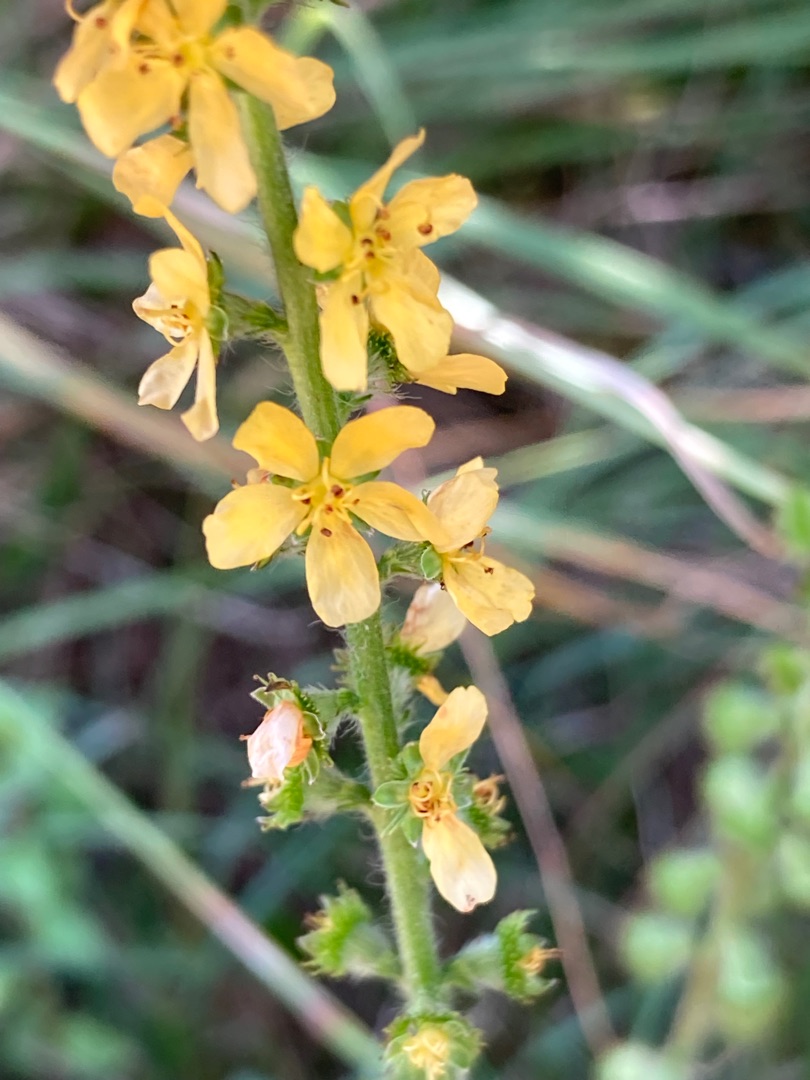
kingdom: Plantae
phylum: Tracheophyta
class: Magnoliopsida
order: Rosales
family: Rosaceae
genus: Agrimonia
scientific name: Agrimonia eupatoria
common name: Almindelig agermåne
